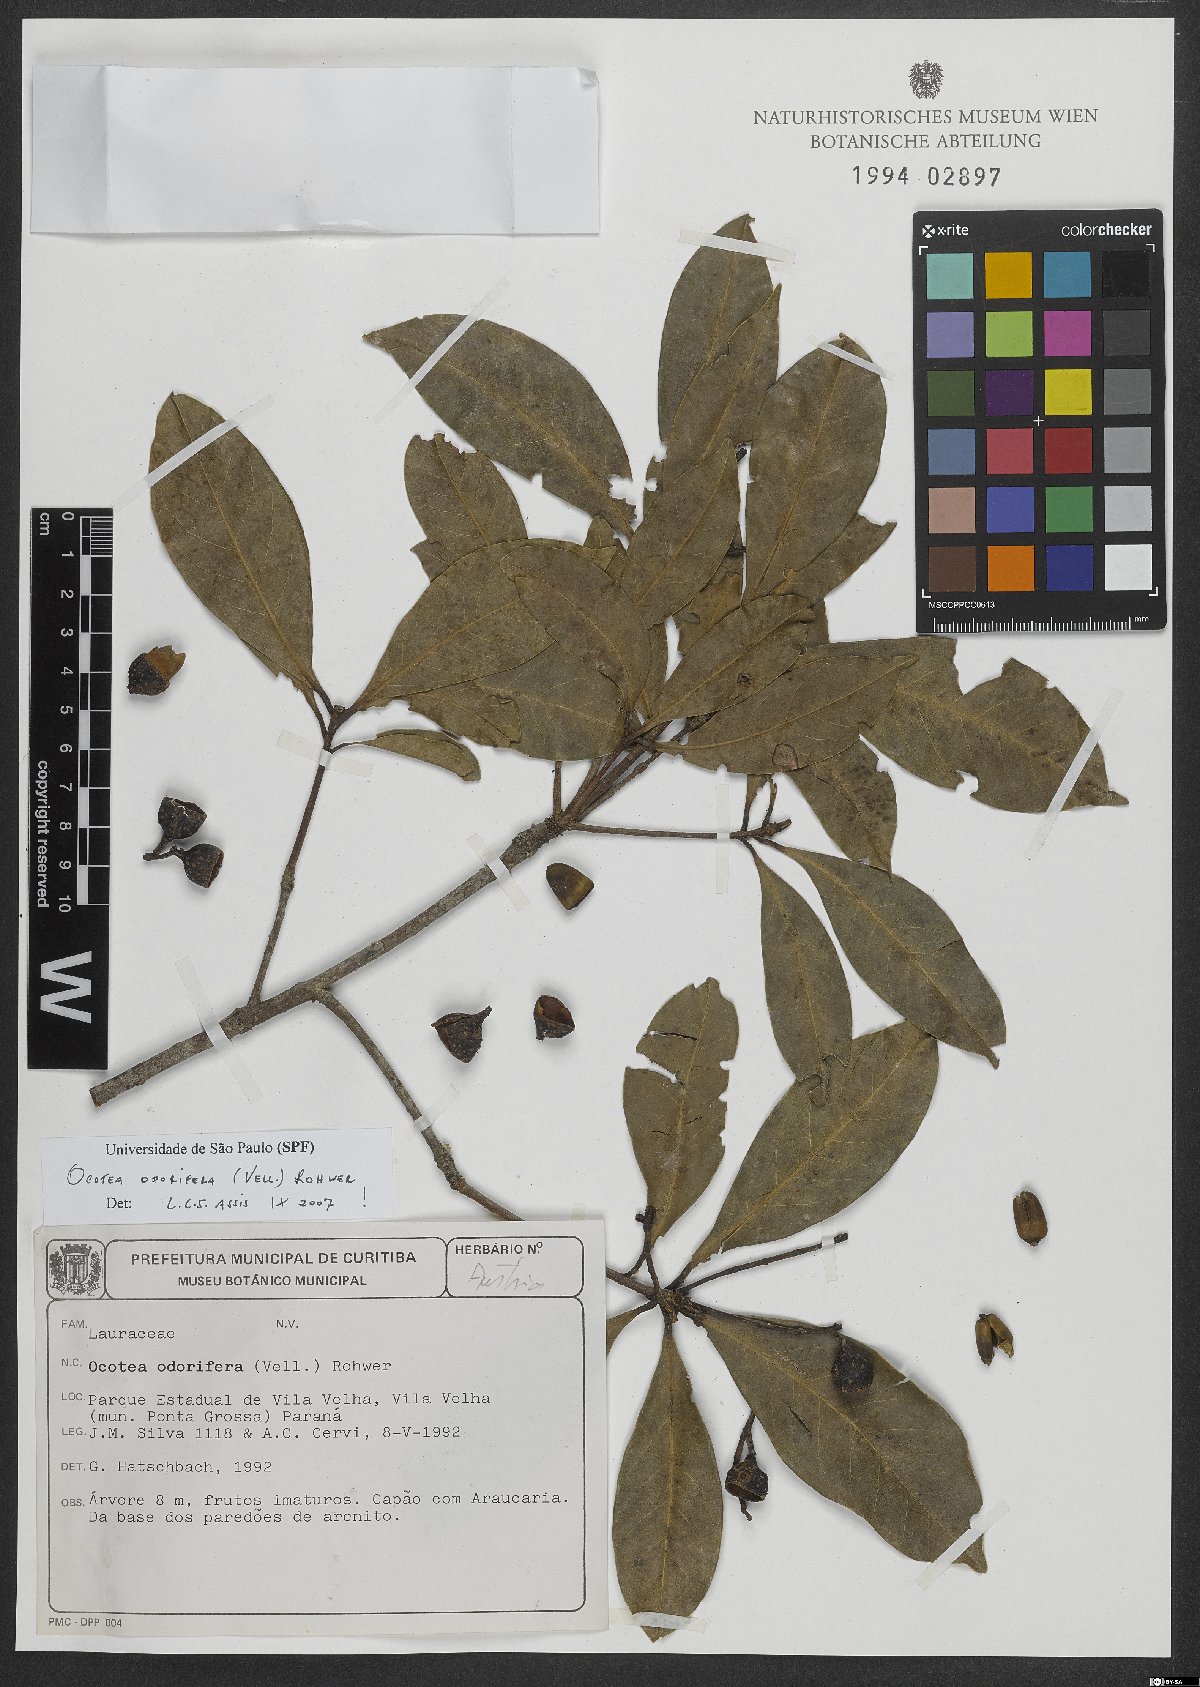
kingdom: Plantae
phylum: Tracheophyta
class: Magnoliopsida
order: Laurales
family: Lauraceae
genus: Mespilodaphne
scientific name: Mespilodaphne quixos
